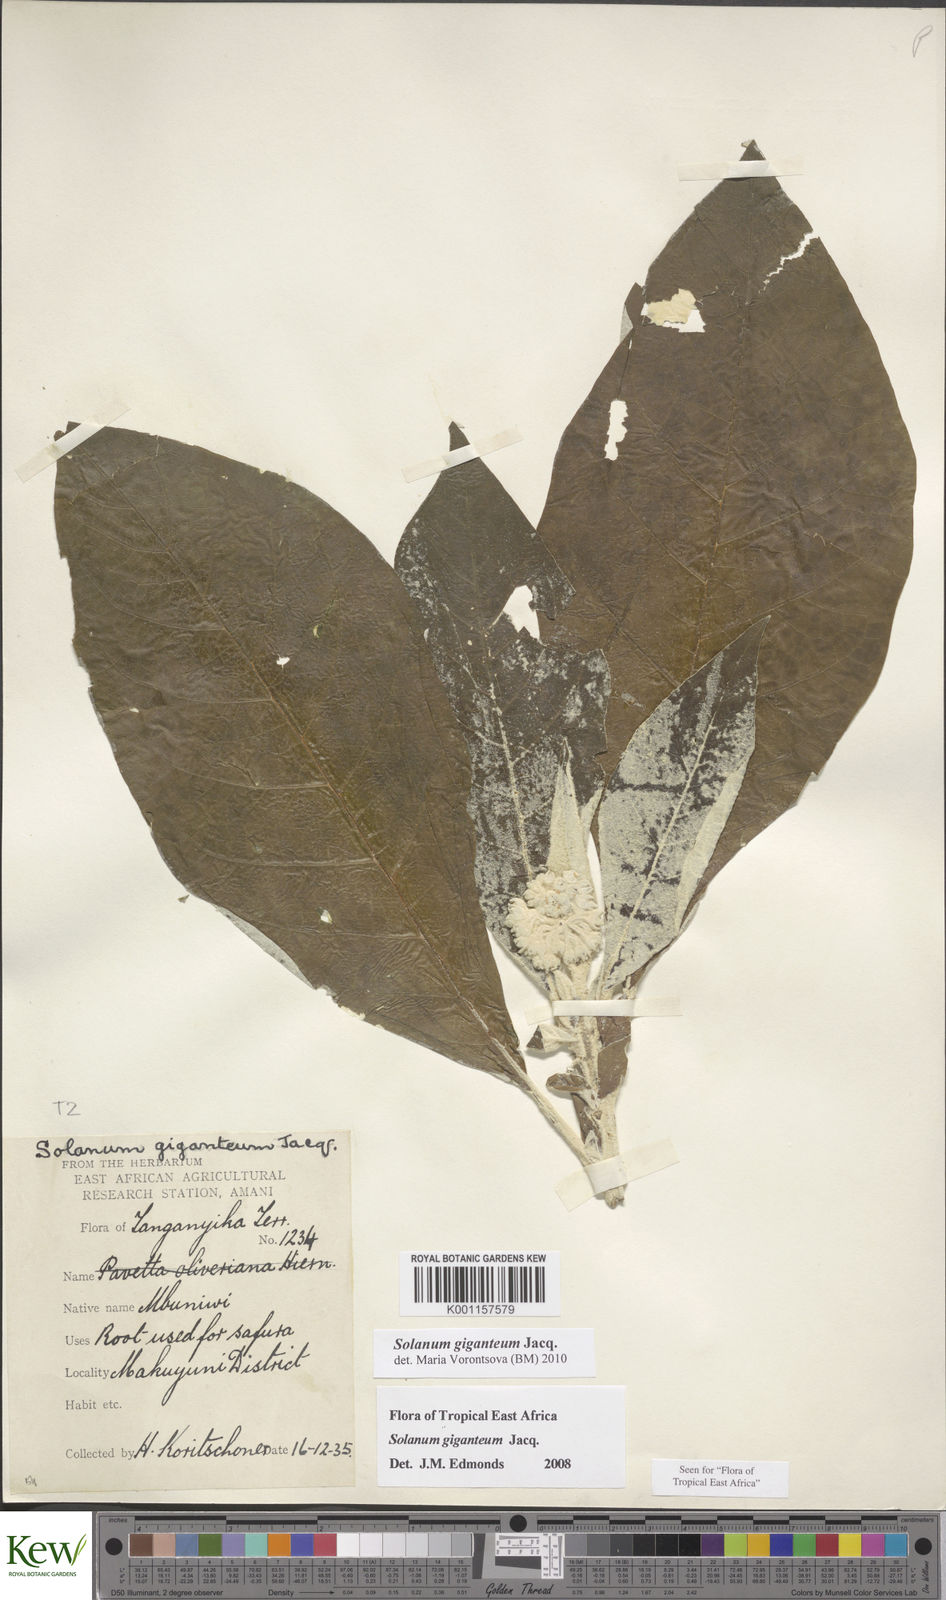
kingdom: Plantae
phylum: Tracheophyta
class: Magnoliopsida
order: Solanales
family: Solanaceae
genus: Solanum
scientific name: Solanum giganteum
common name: Healing-leaf-tree
